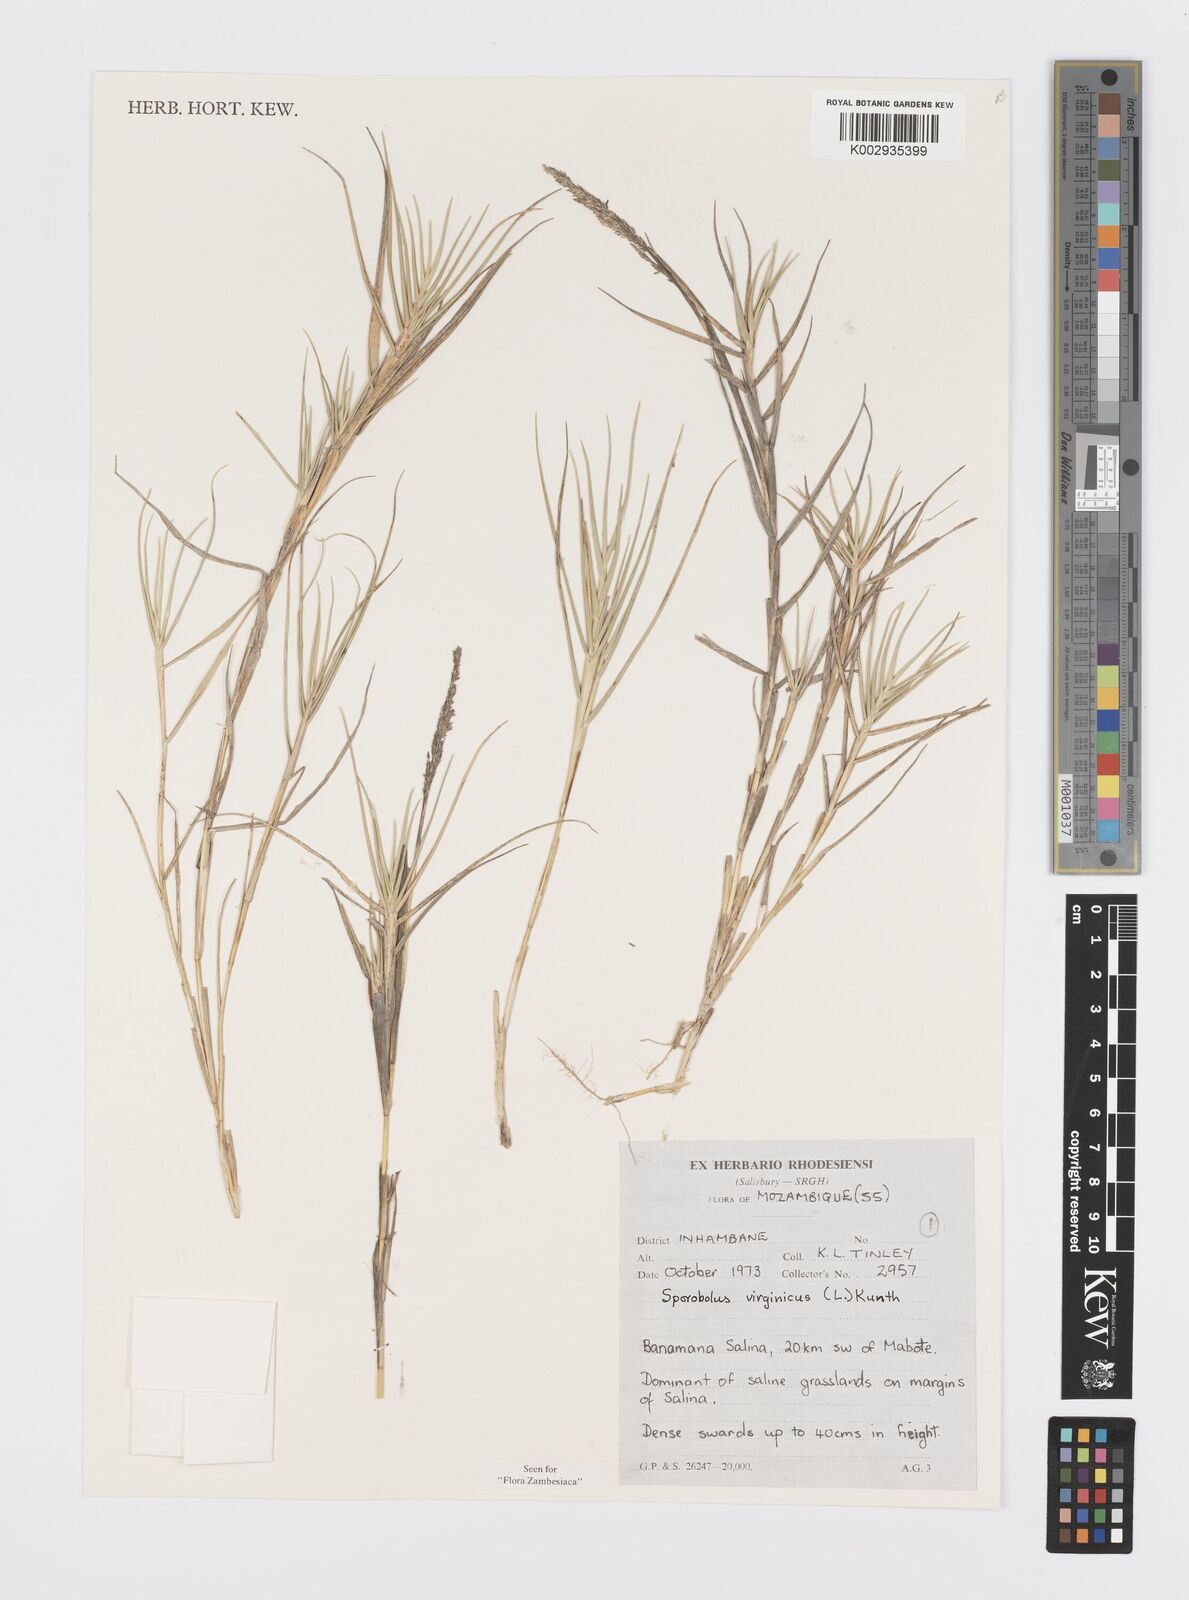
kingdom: Plantae
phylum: Tracheophyta
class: Liliopsida
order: Poales
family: Poaceae
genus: Sporobolus
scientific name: Sporobolus virginicus
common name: Beach dropseed
